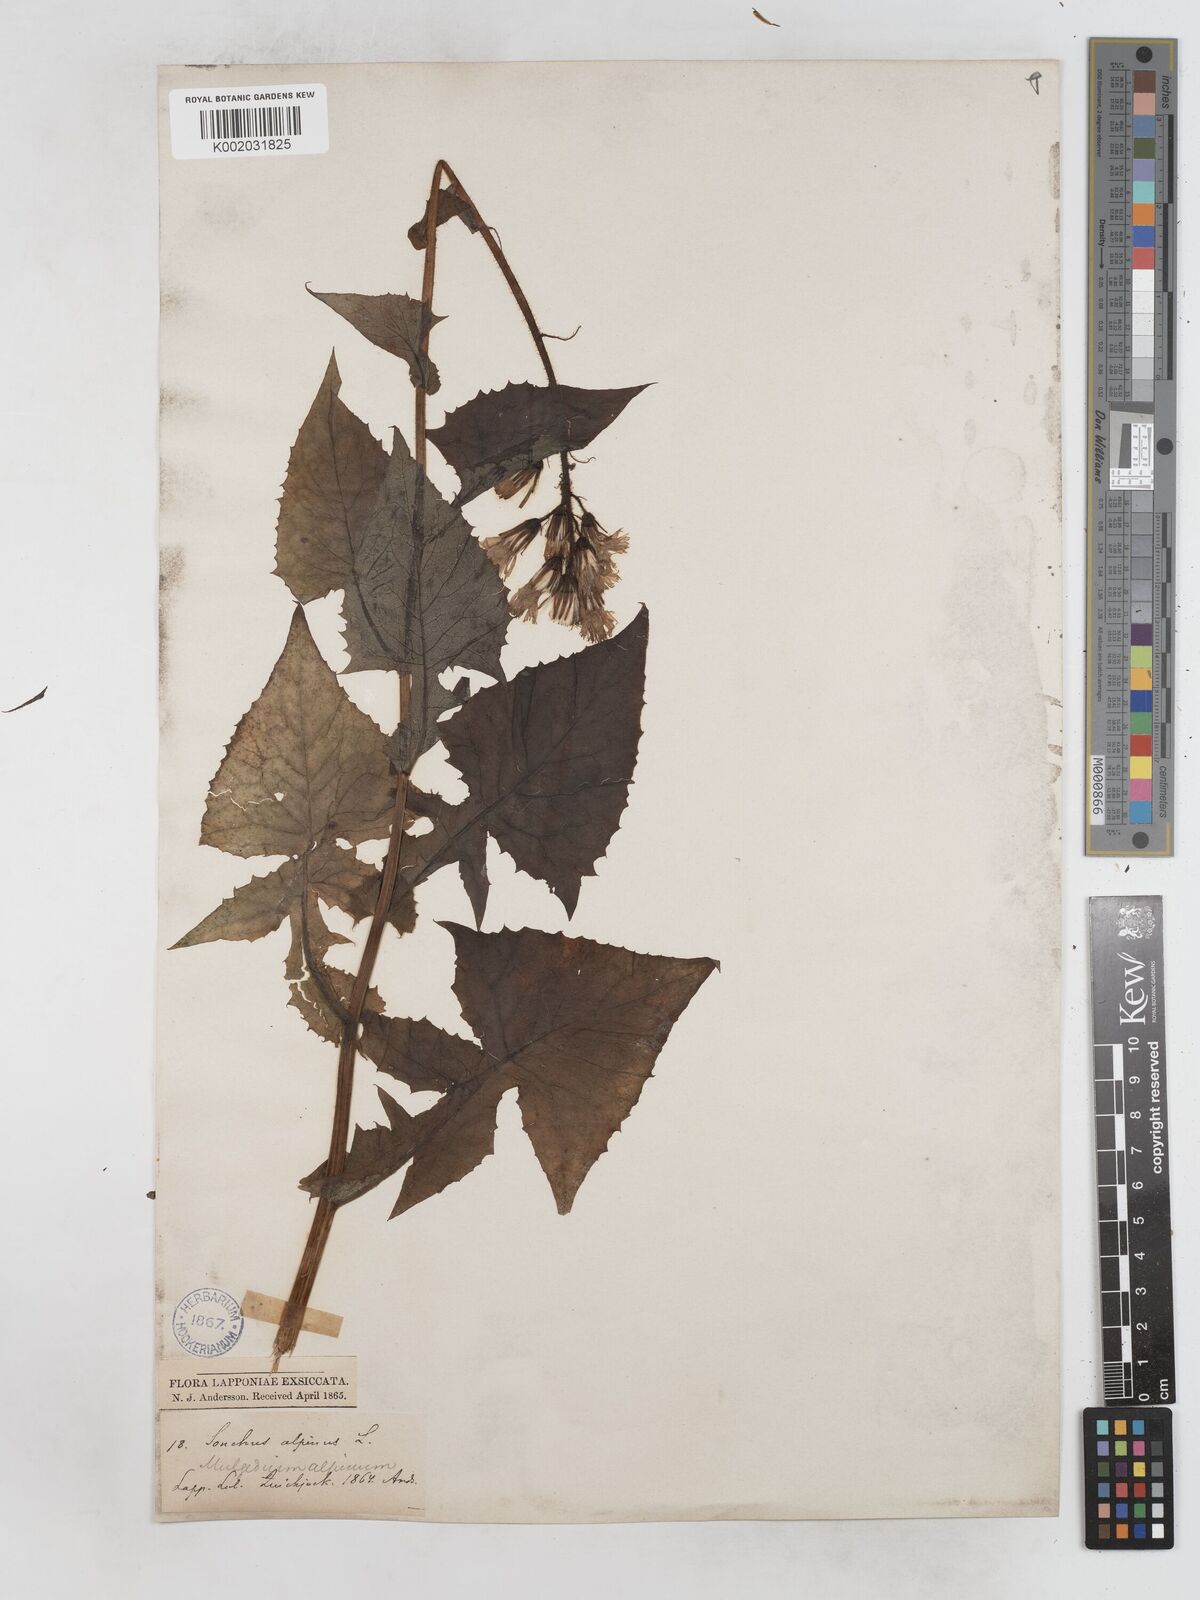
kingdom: Plantae
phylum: Tracheophyta
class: Magnoliopsida
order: Asterales
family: Asteraceae
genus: Cicerbita
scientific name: Cicerbita alpina
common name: Alpine blue-sow-thistle
